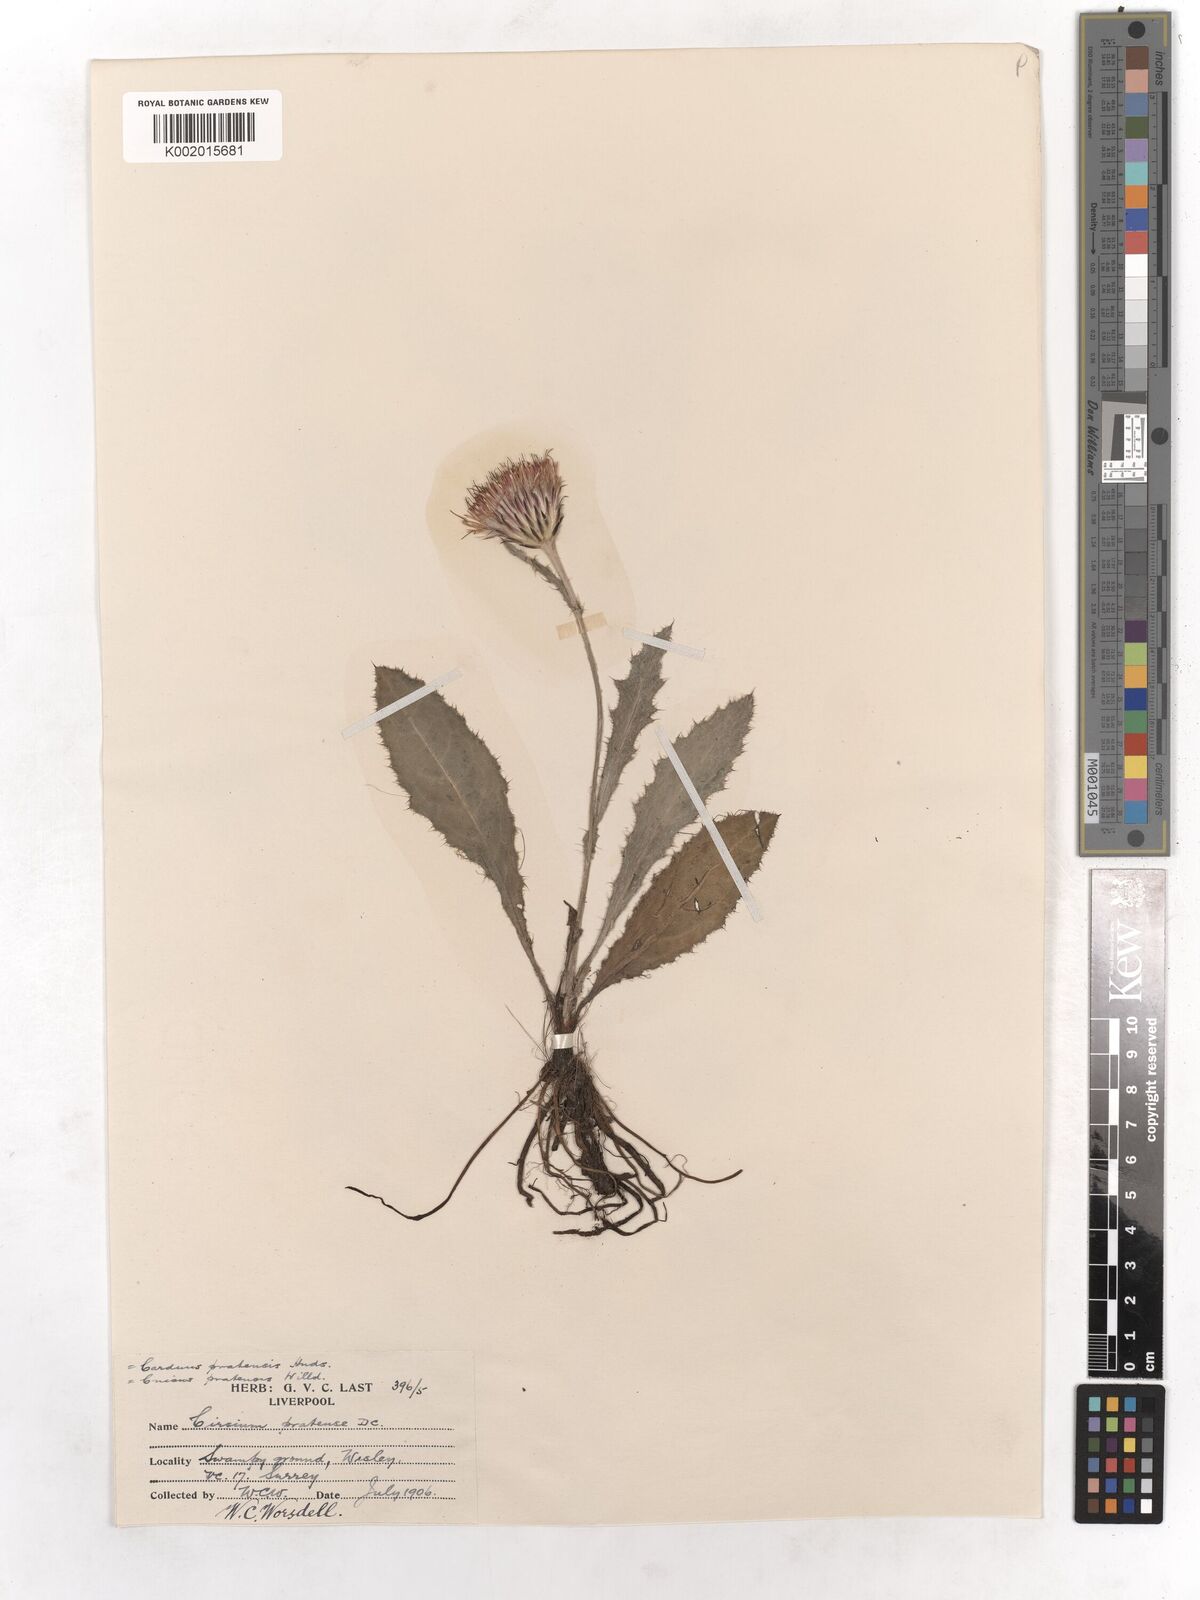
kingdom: Plantae
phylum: Tracheophyta
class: Magnoliopsida
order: Asterales
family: Asteraceae
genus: Cirsium
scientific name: Cirsium monspessulanum
